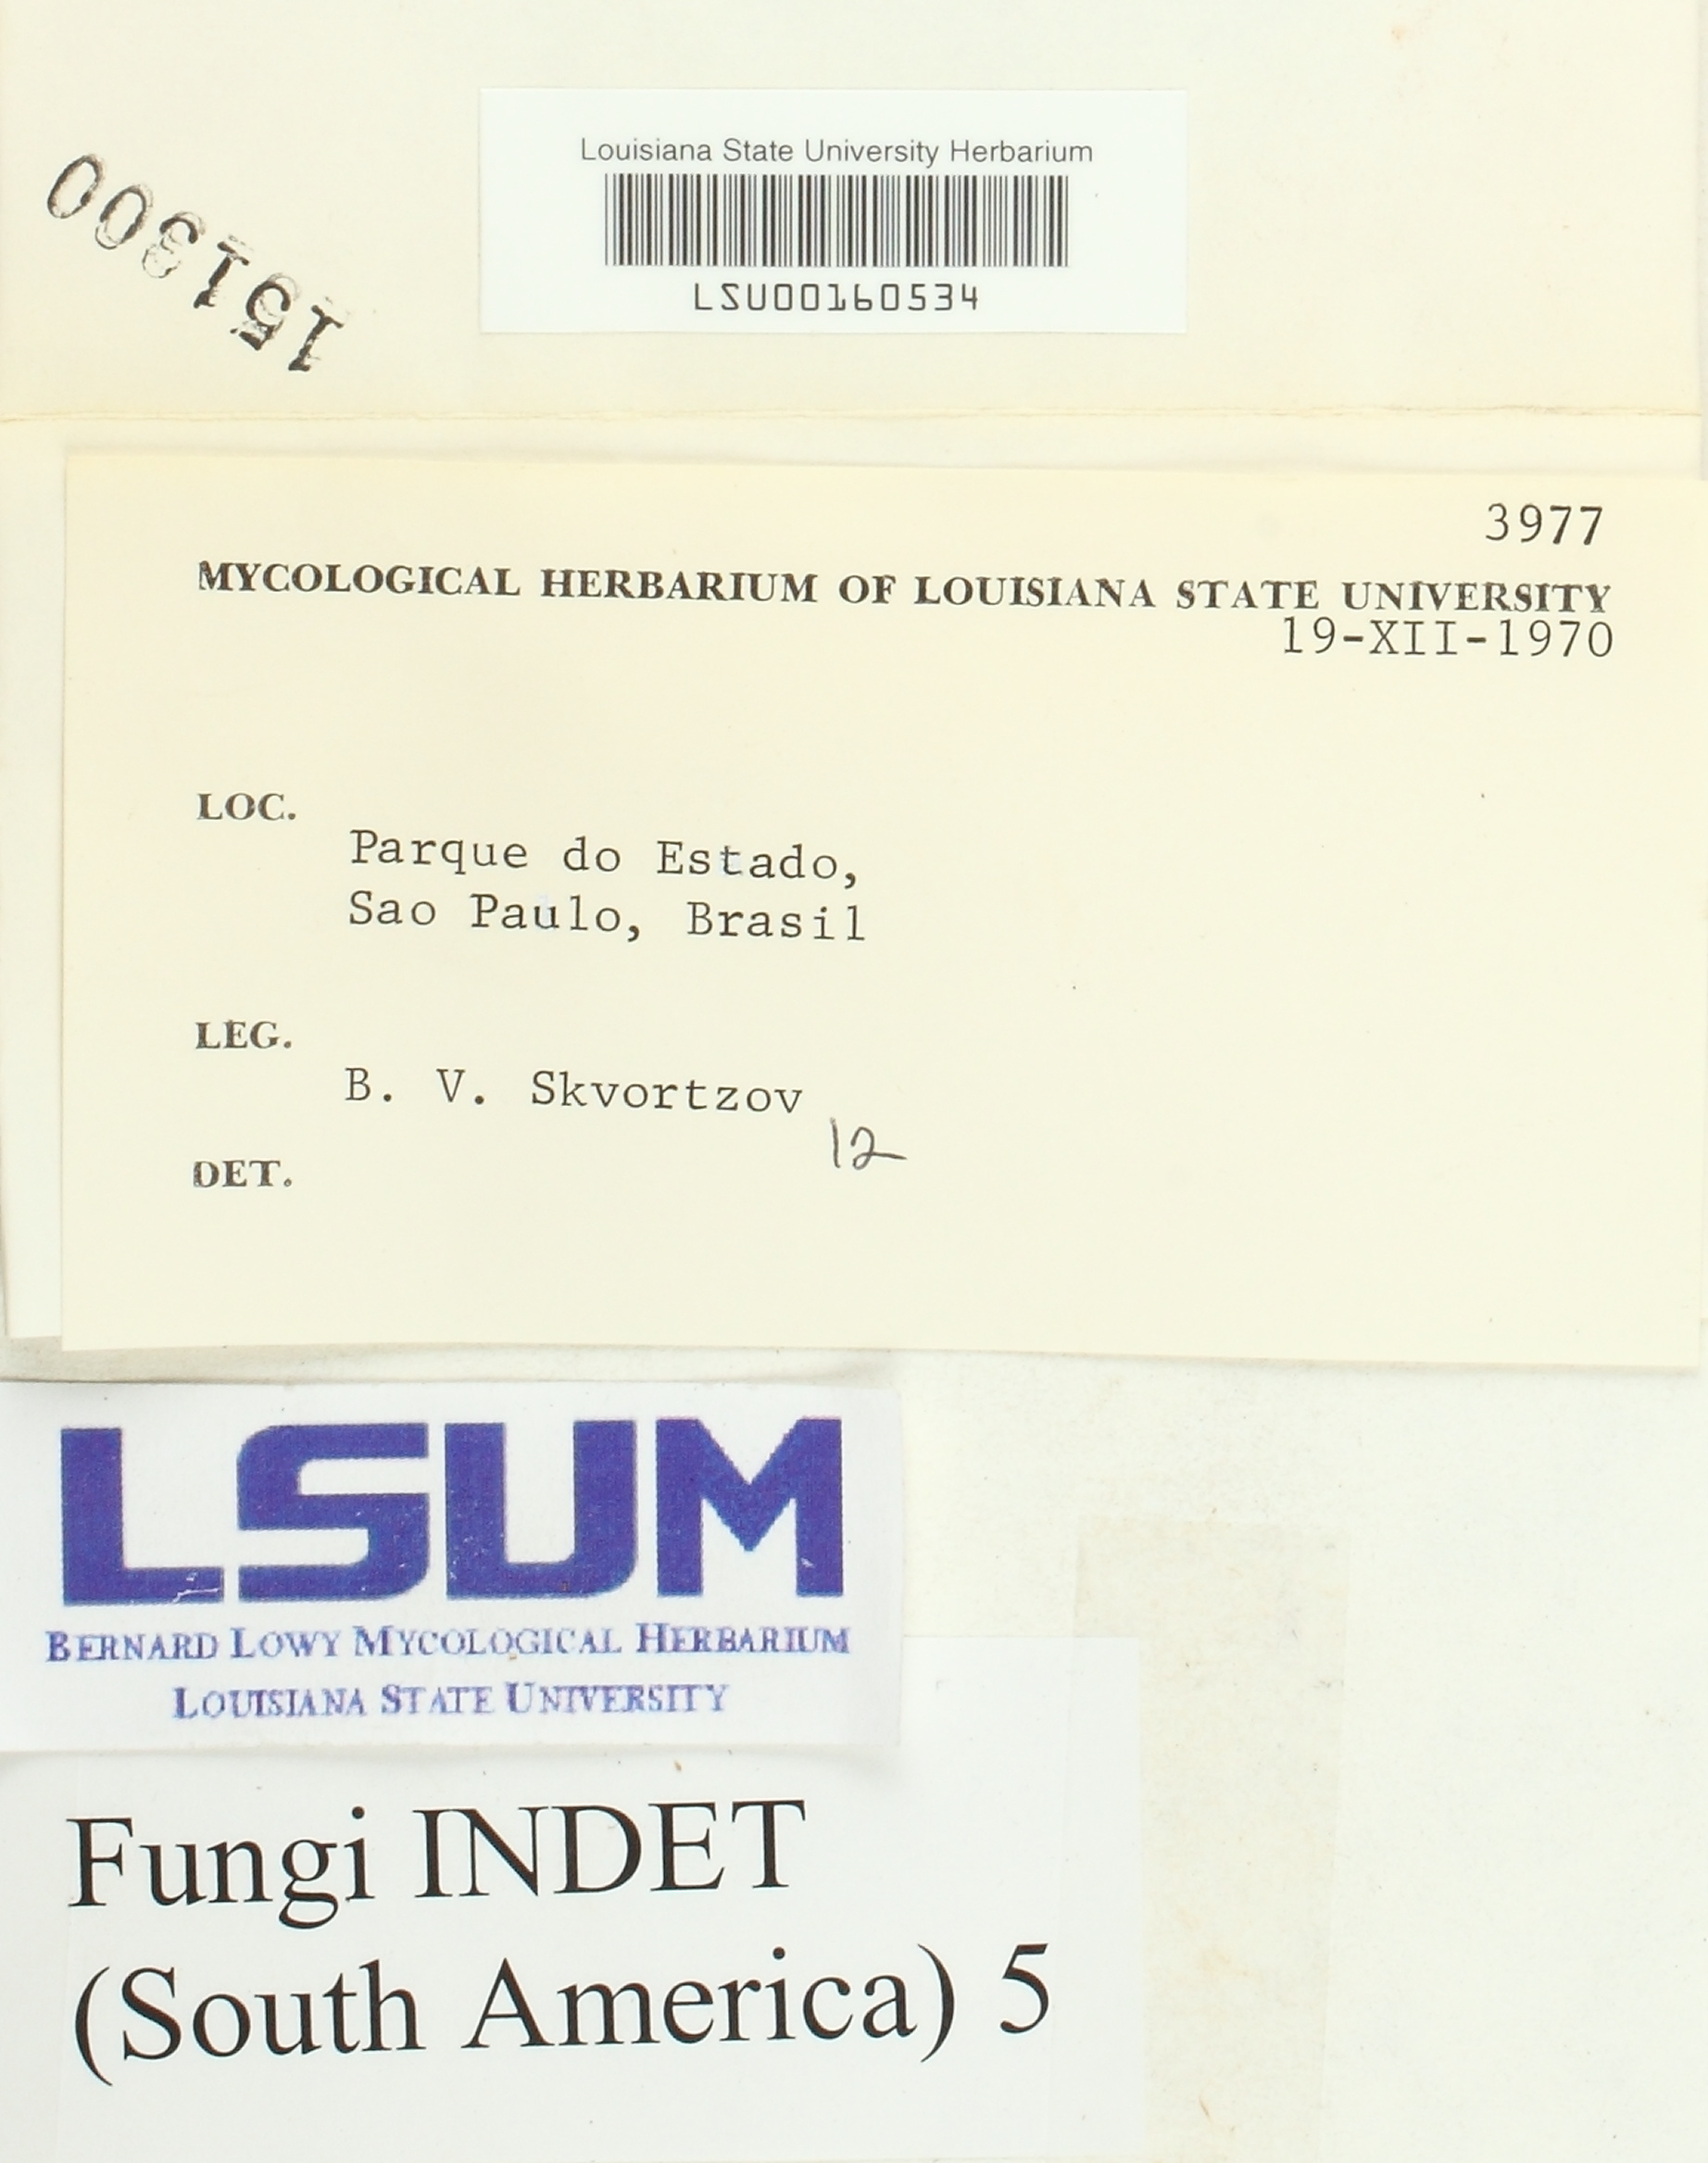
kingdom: Fungi
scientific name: Fungi
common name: Fungi
